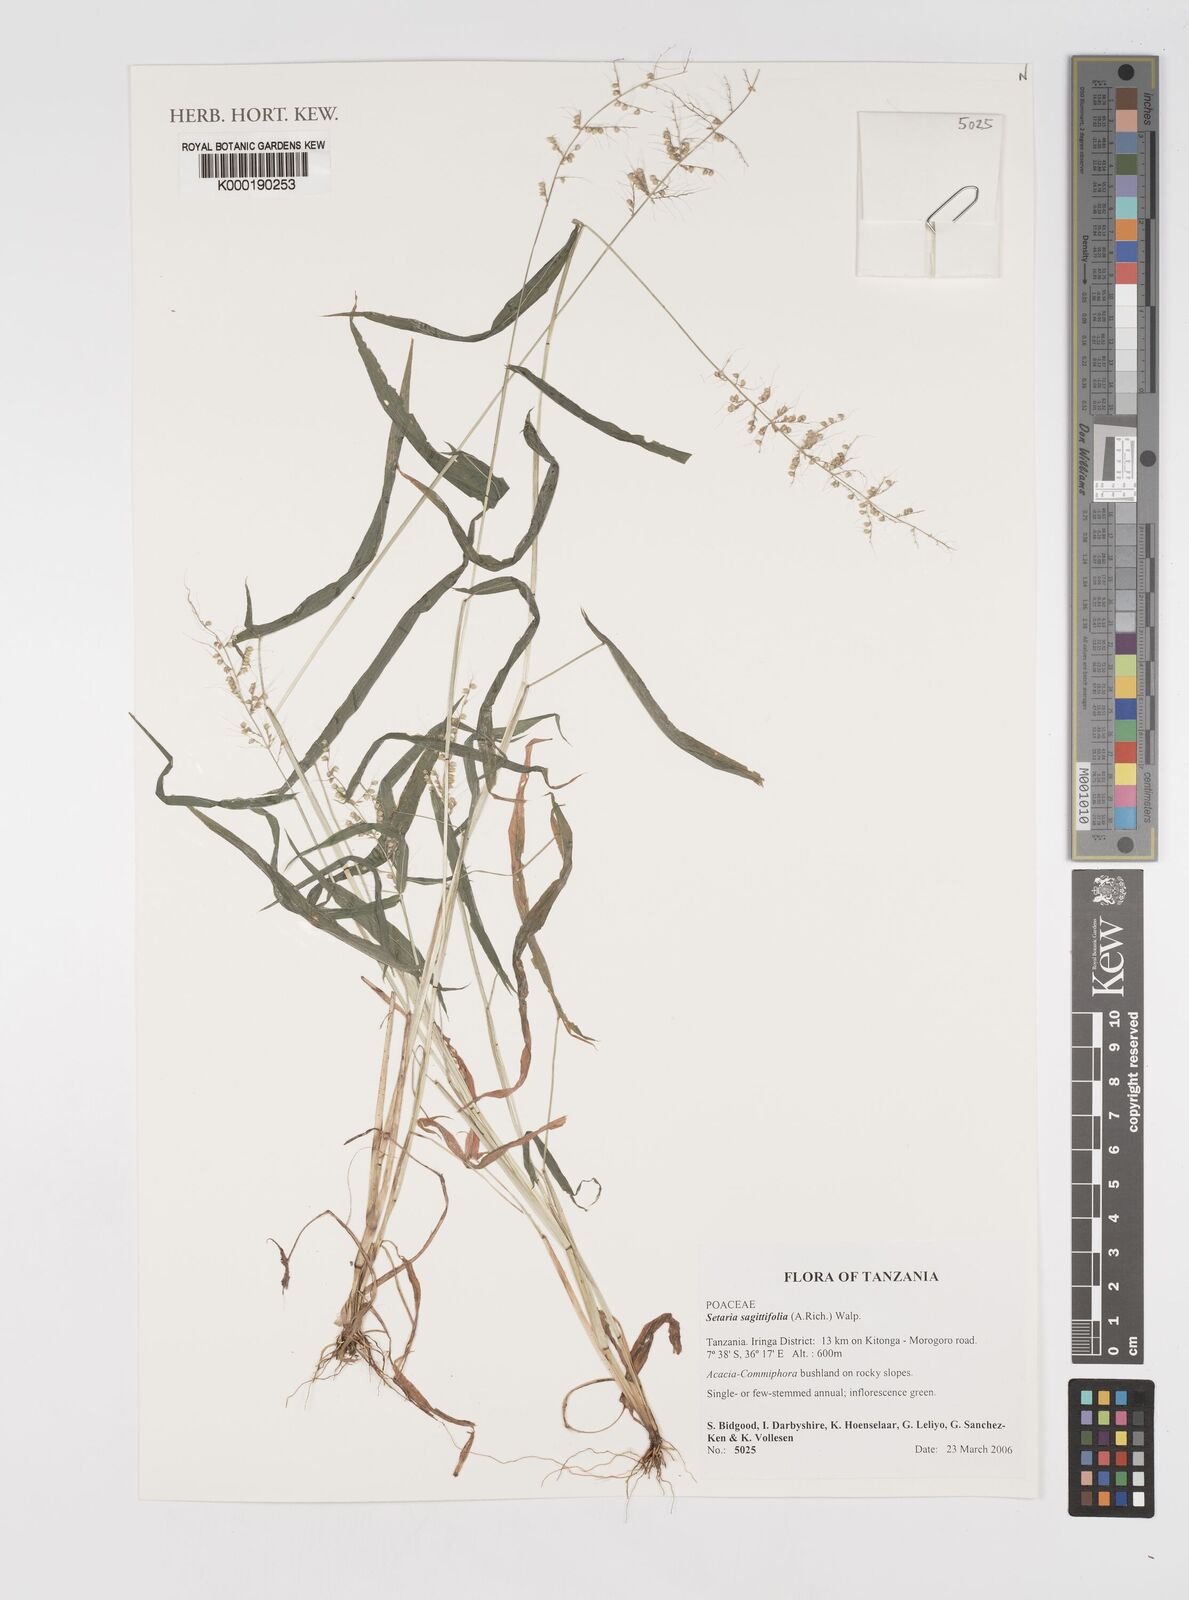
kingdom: Plantae
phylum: Tracheophyta
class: Liliopsida
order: Poales
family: Poaceae
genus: Setaria
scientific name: Setaria sagittifolia
